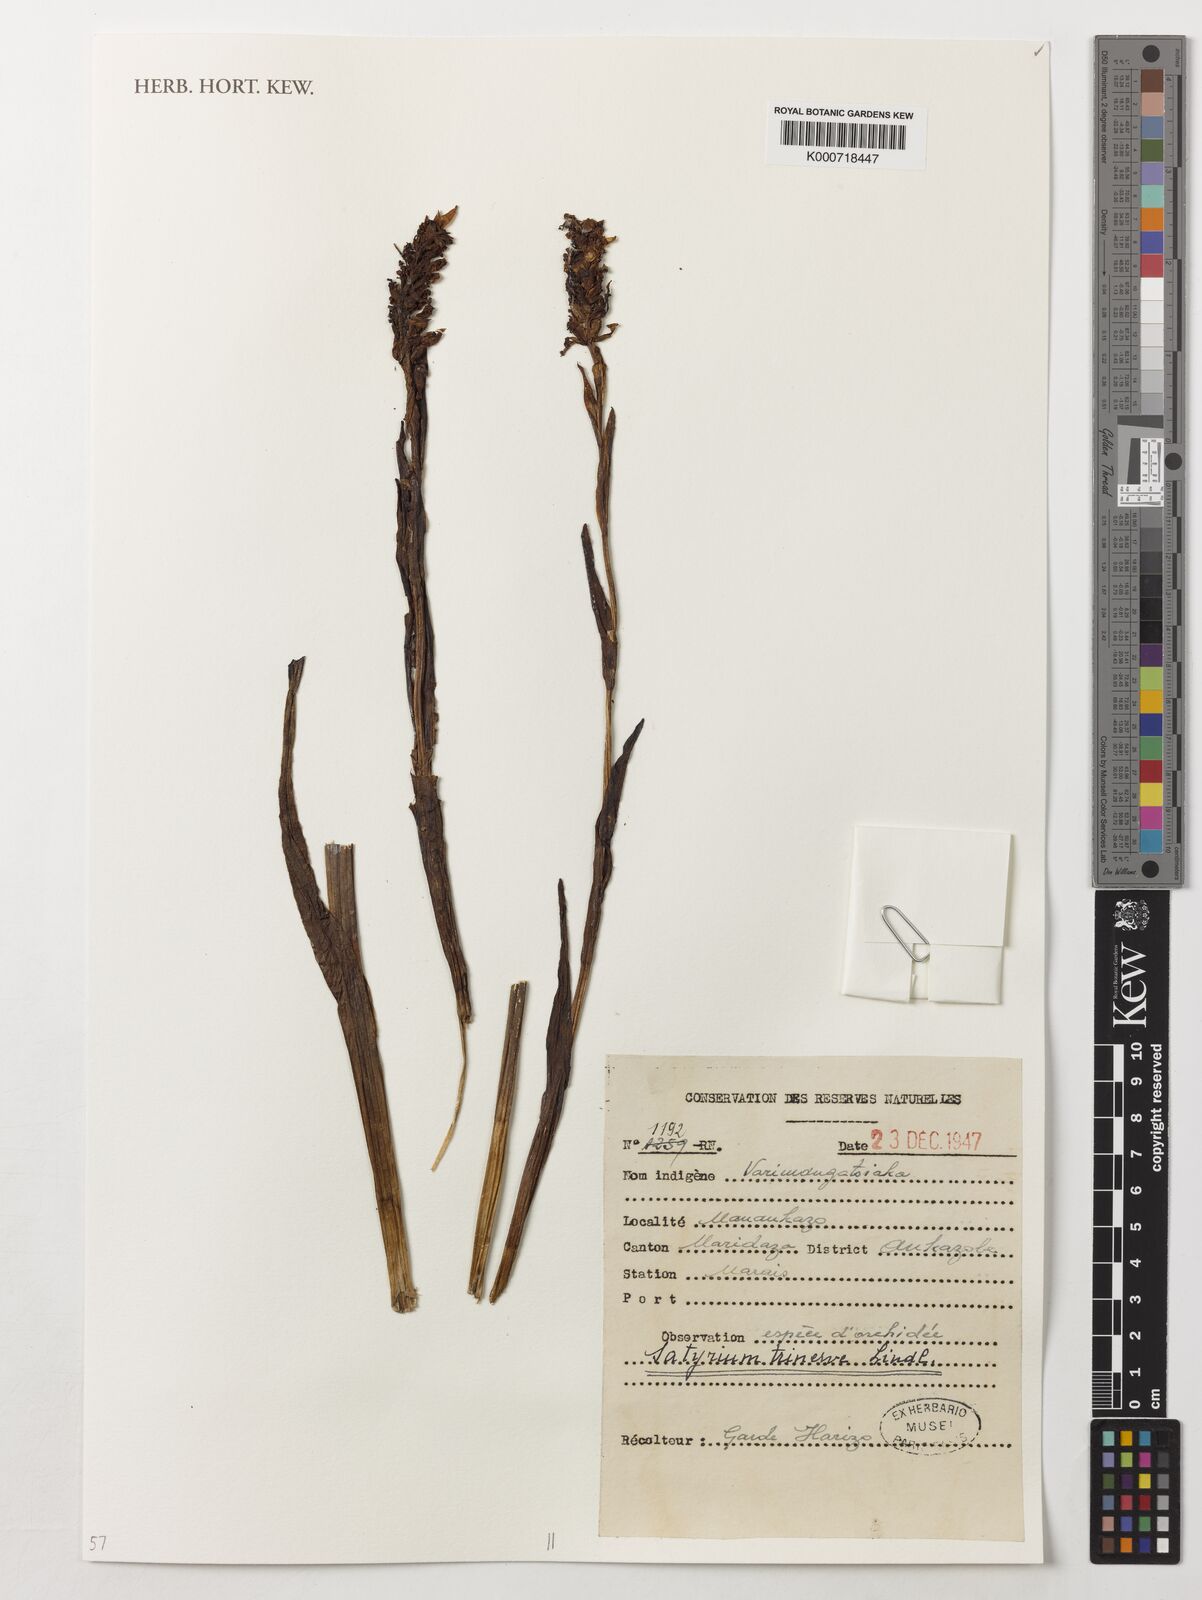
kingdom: Plantae
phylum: Tracheophyta
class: Liliopsida
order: Asparagales
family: Orchidaceae
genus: Satyrium
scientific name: Satyrium trinerve
